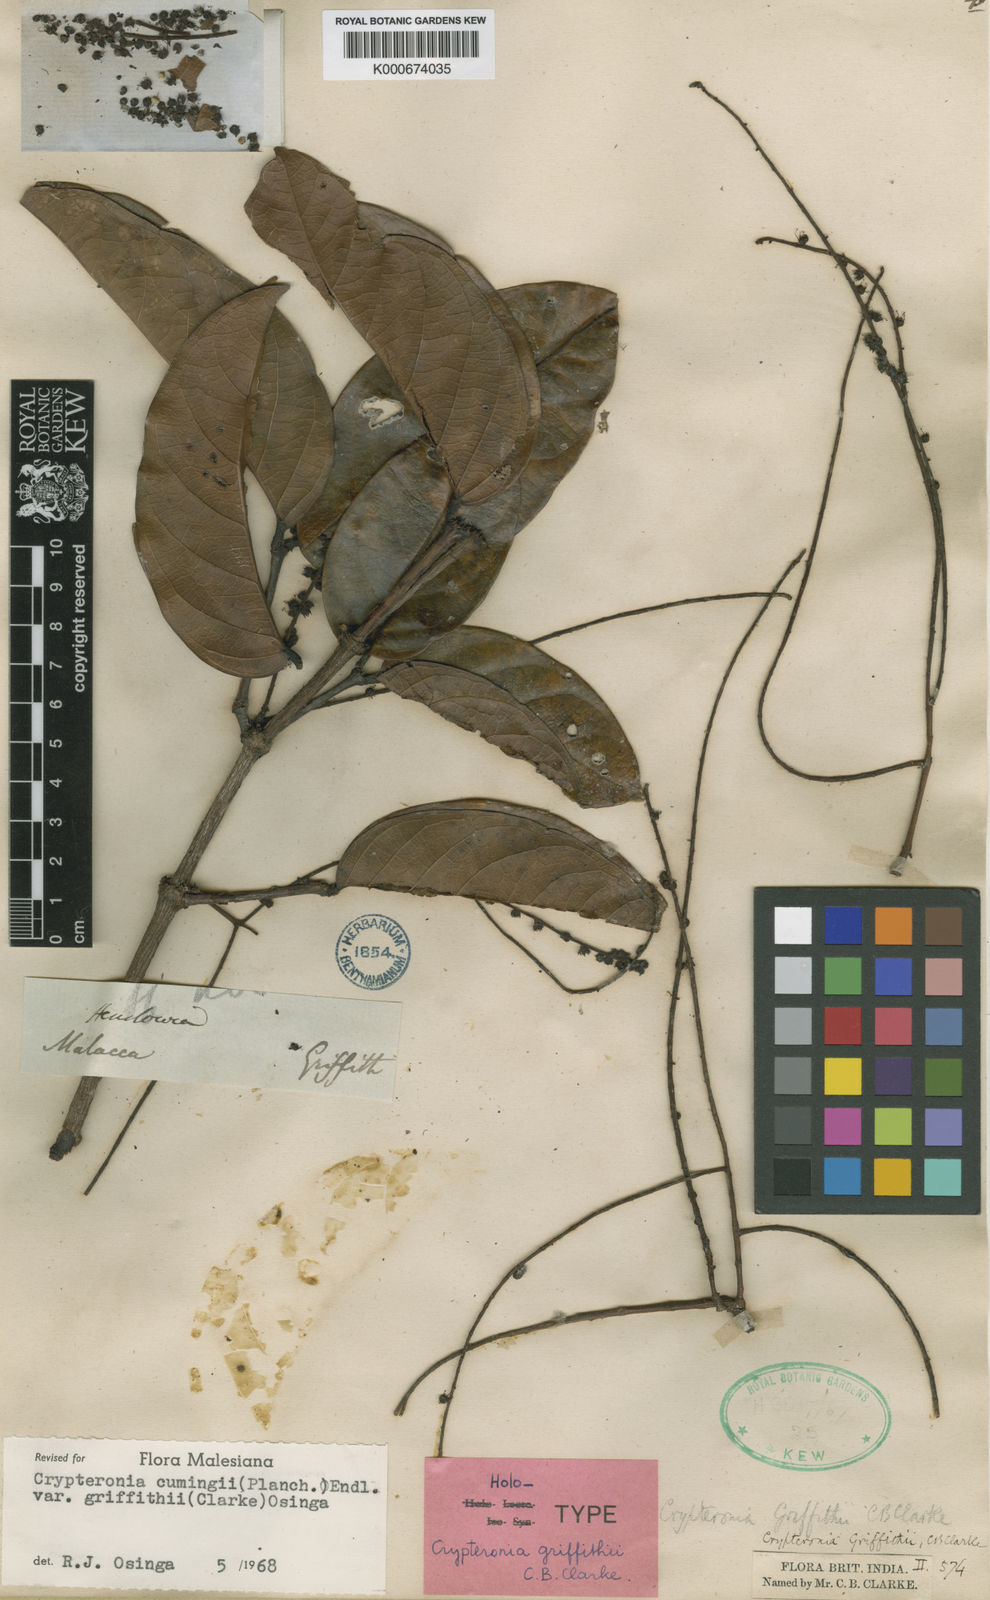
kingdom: Plantae
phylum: Tracheophyta
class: Magnoliopsida
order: Myrtales
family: Crypteroniaceae
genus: Crypteronia
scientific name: Crypteronia cumingii
